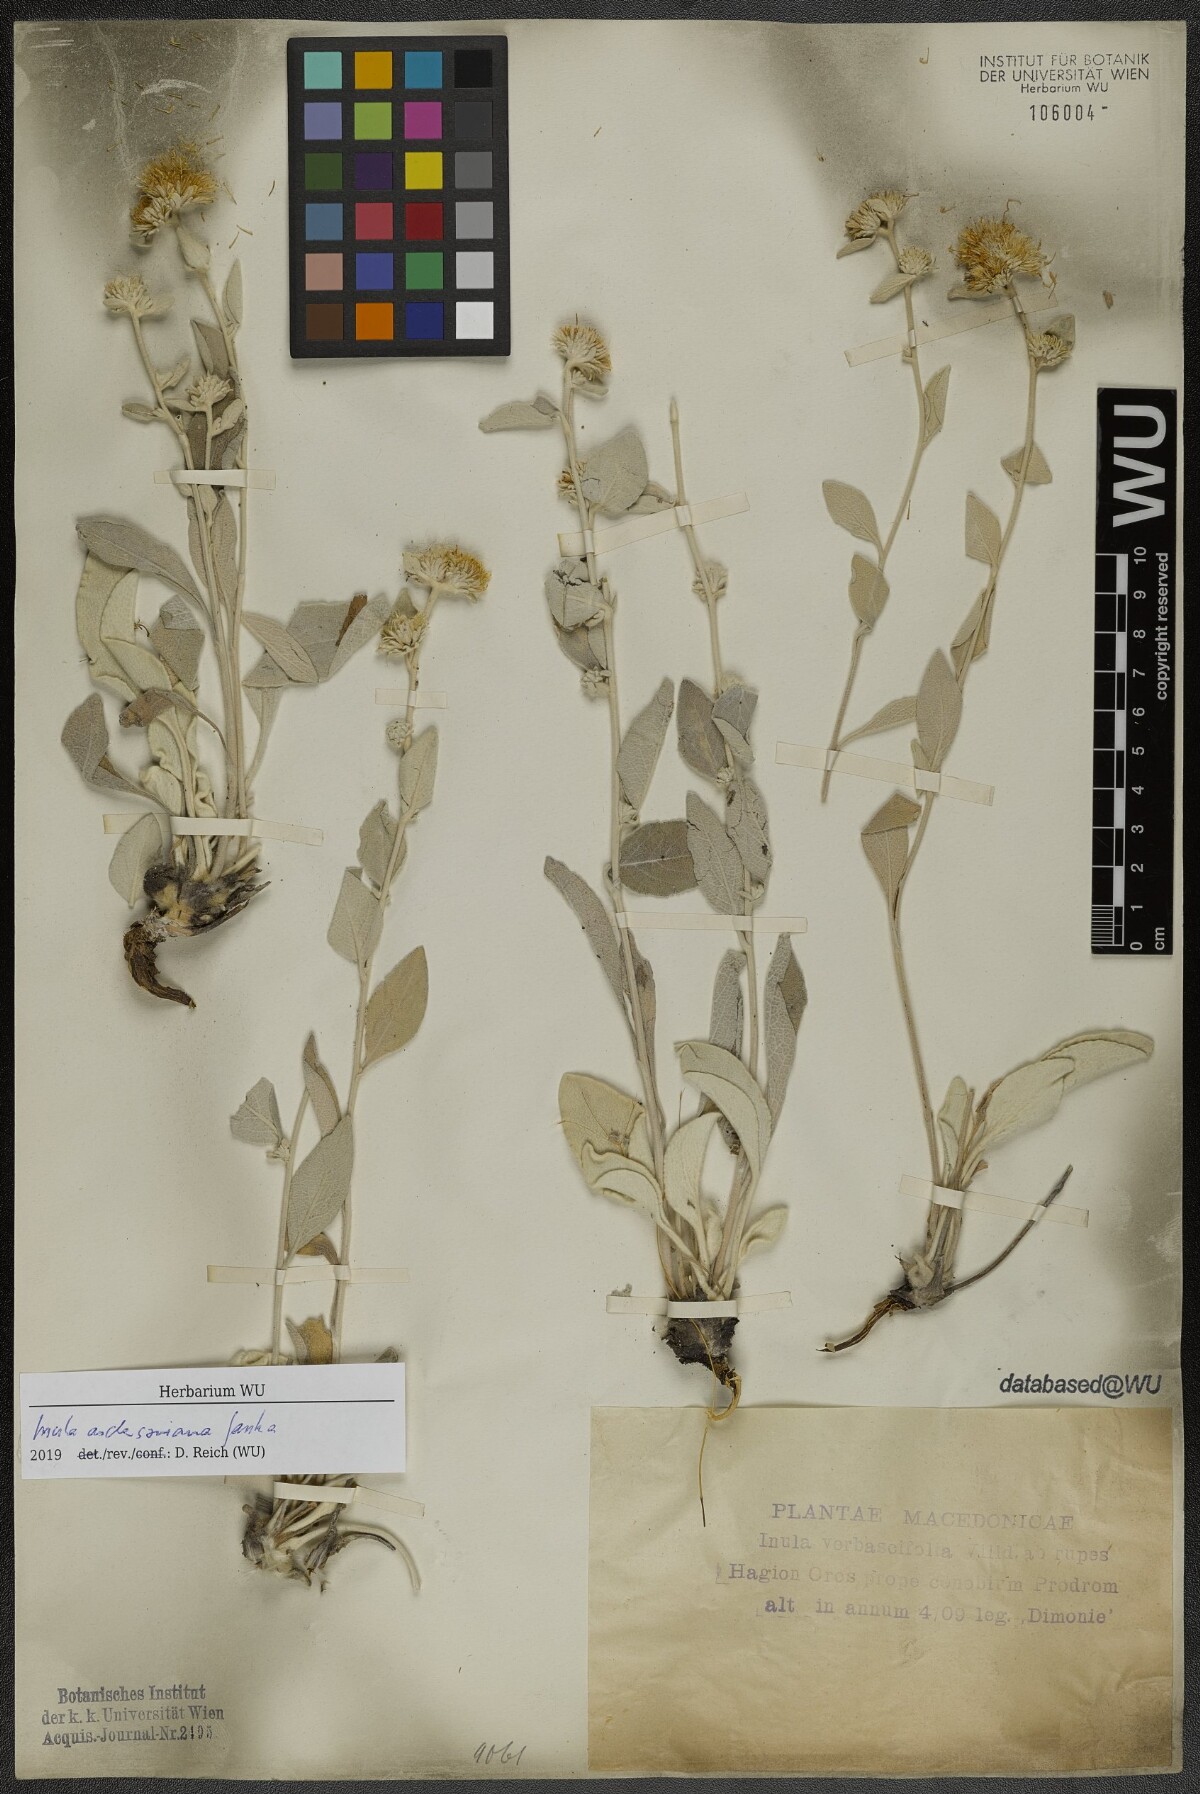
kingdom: Plantae
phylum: Tracheophyta
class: Magnoliopsida
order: Asterales
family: Asteraceae
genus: Pentanema
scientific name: Pentanema verbascifolium
